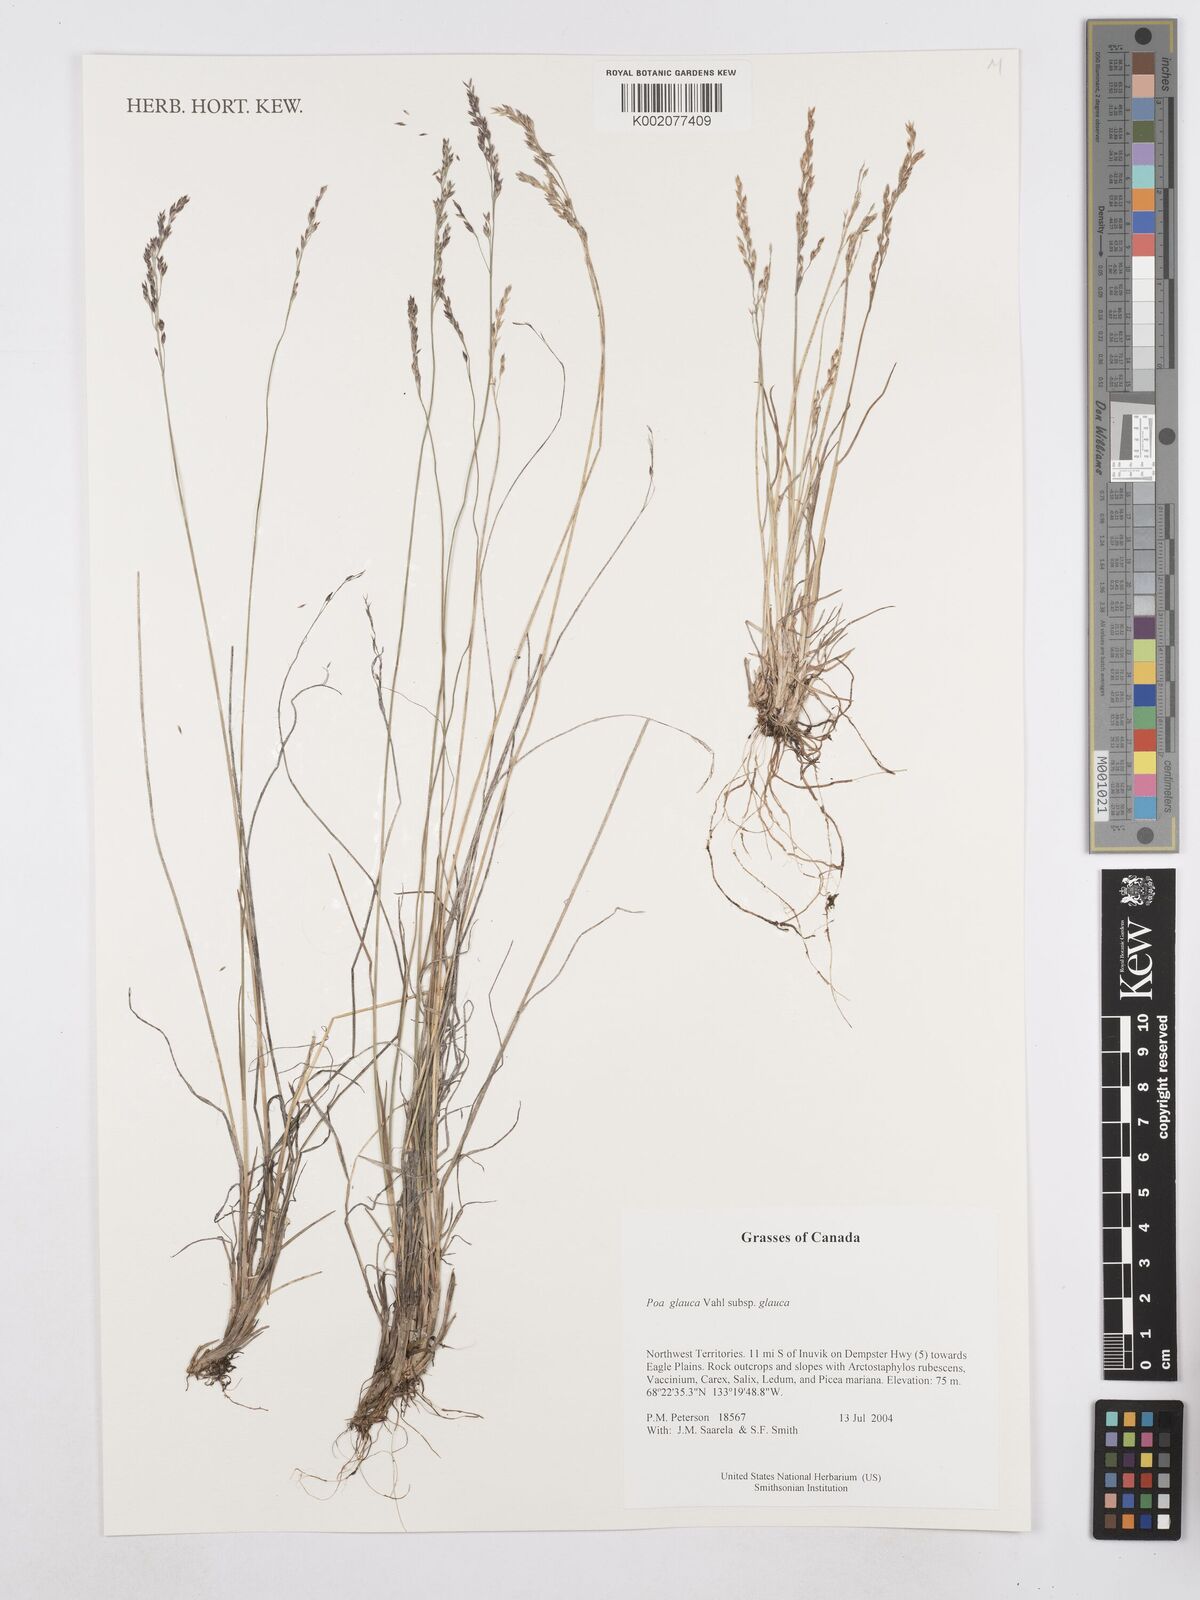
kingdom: Plantae
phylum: Tracheophyta
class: Liliopsida
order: Poales
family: Poaceae
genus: Poa
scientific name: Poa glauca
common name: Glaucous bluegrass
